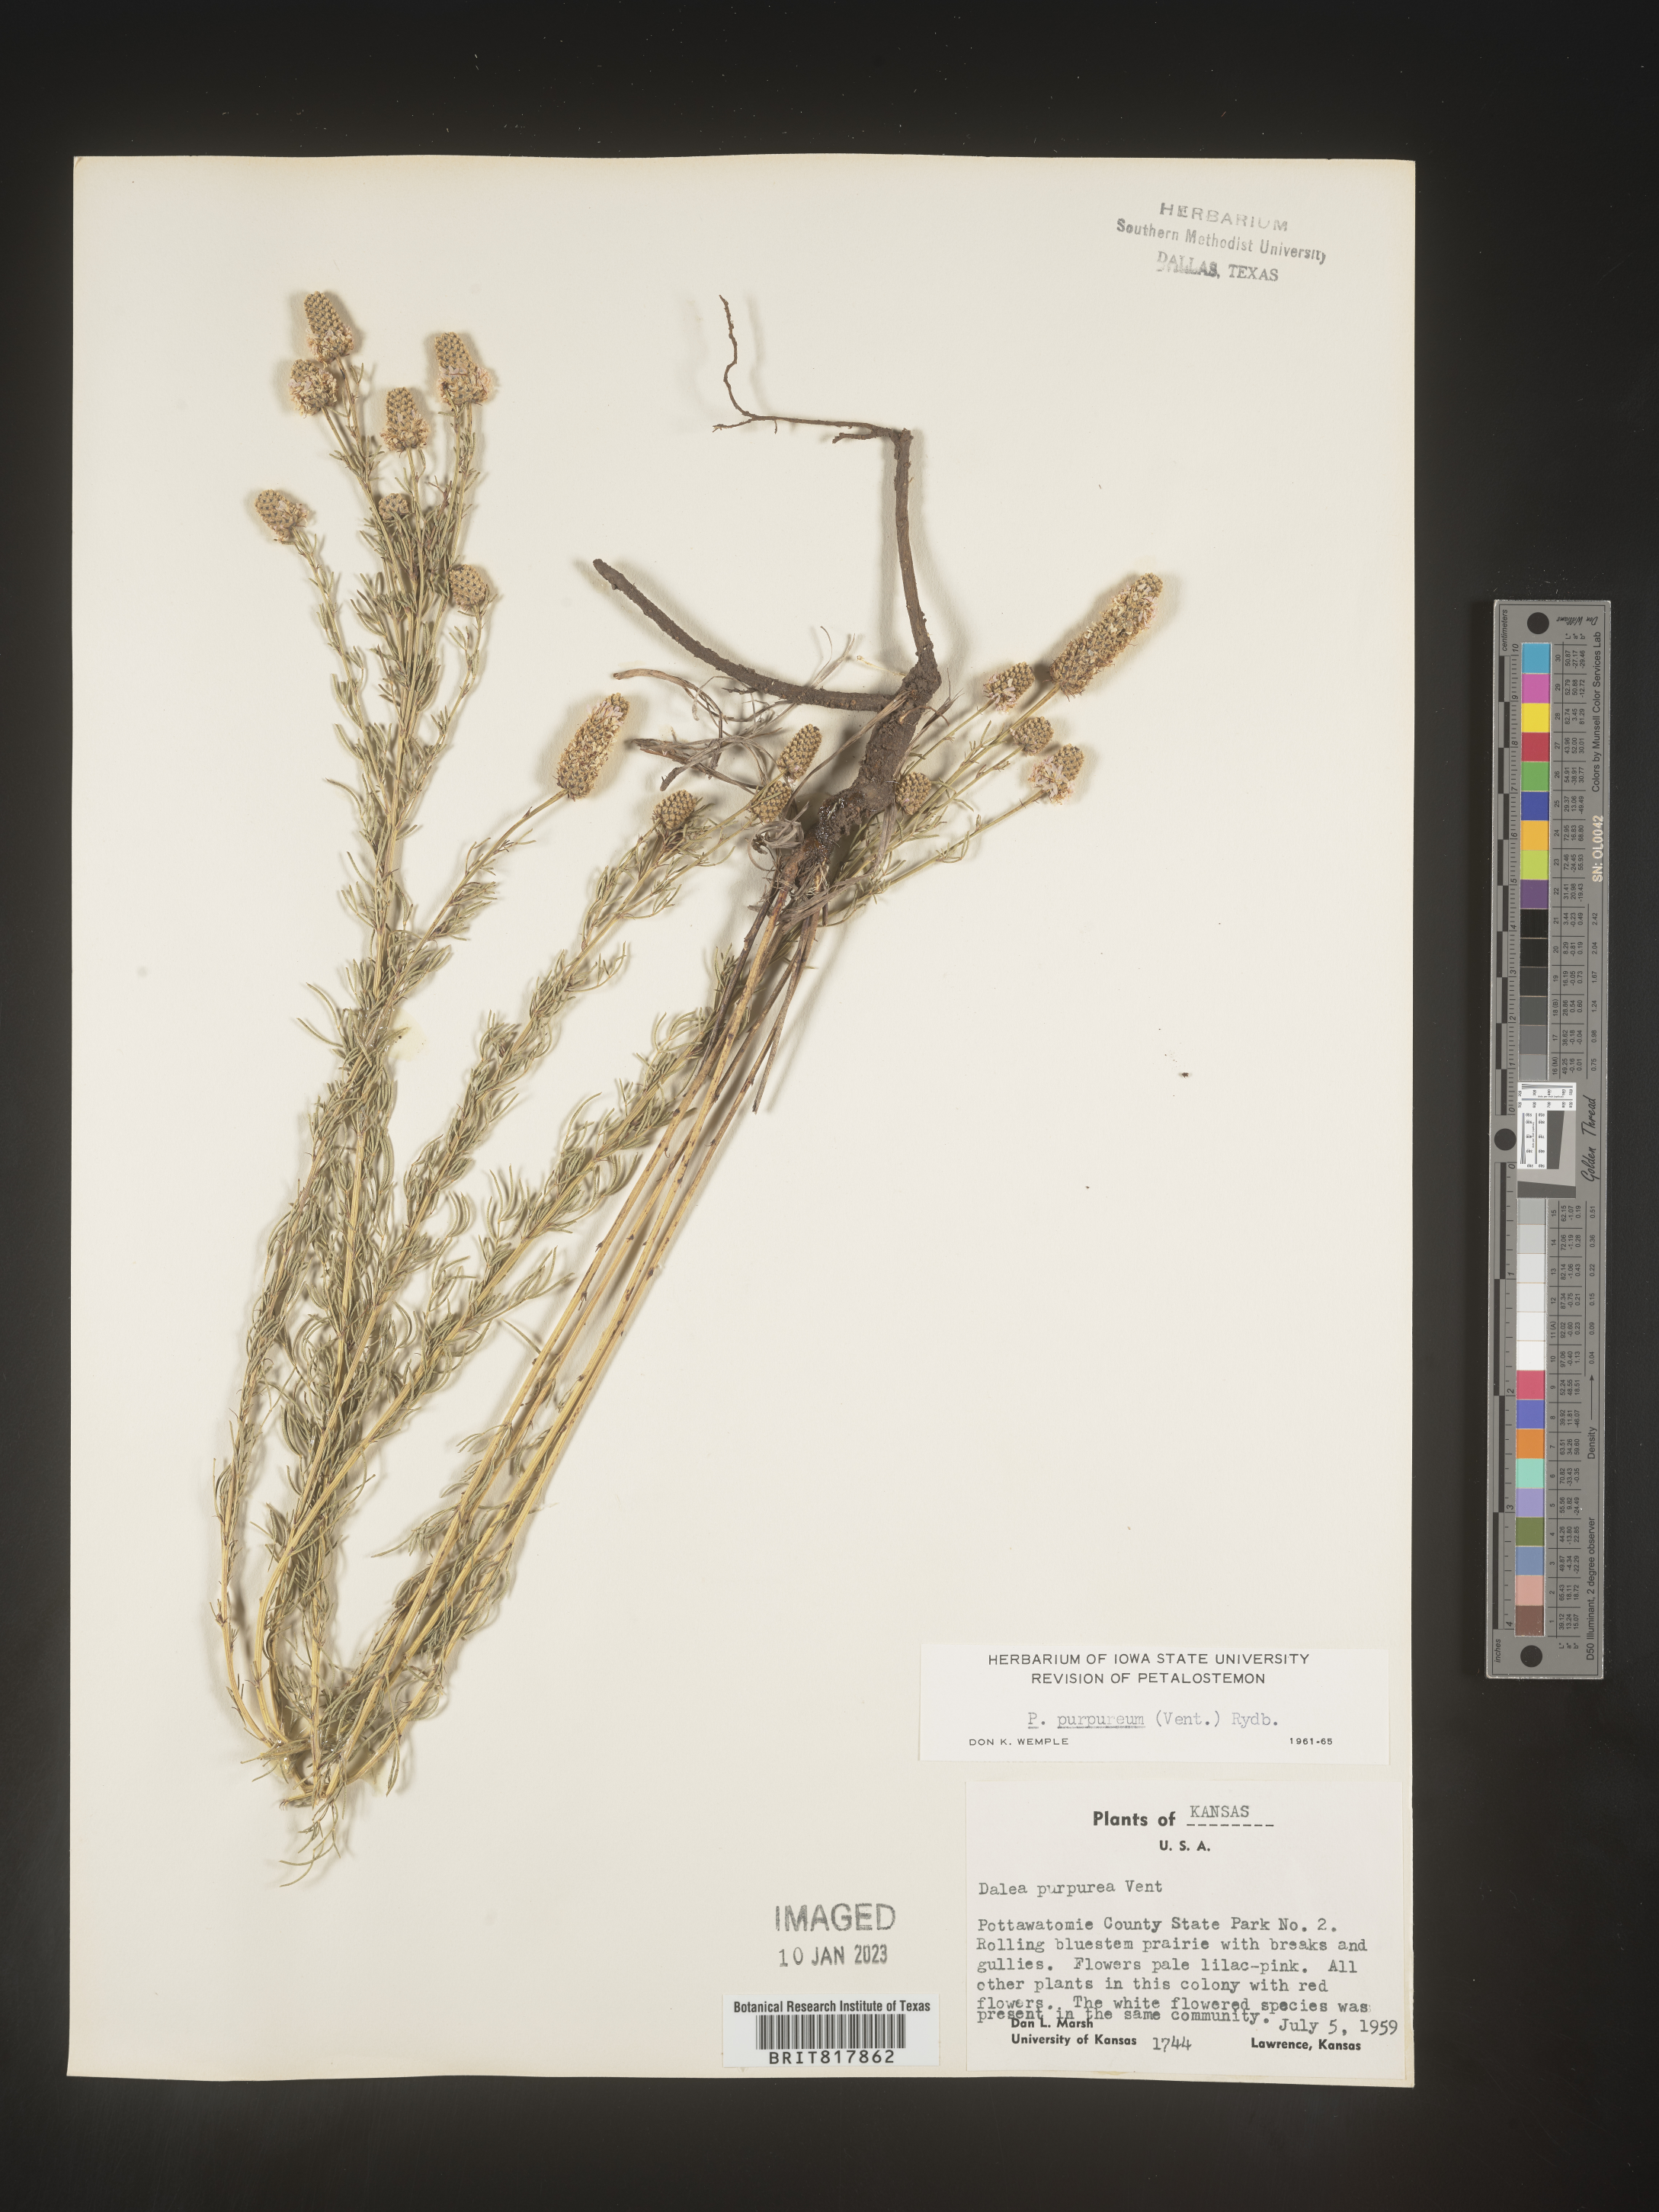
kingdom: Plantae
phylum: Tracheophyta
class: Magnoliopsida
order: Fabales
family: Fabaceae
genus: Dalea
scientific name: Dalea purpurea
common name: Purple prairie-clover
